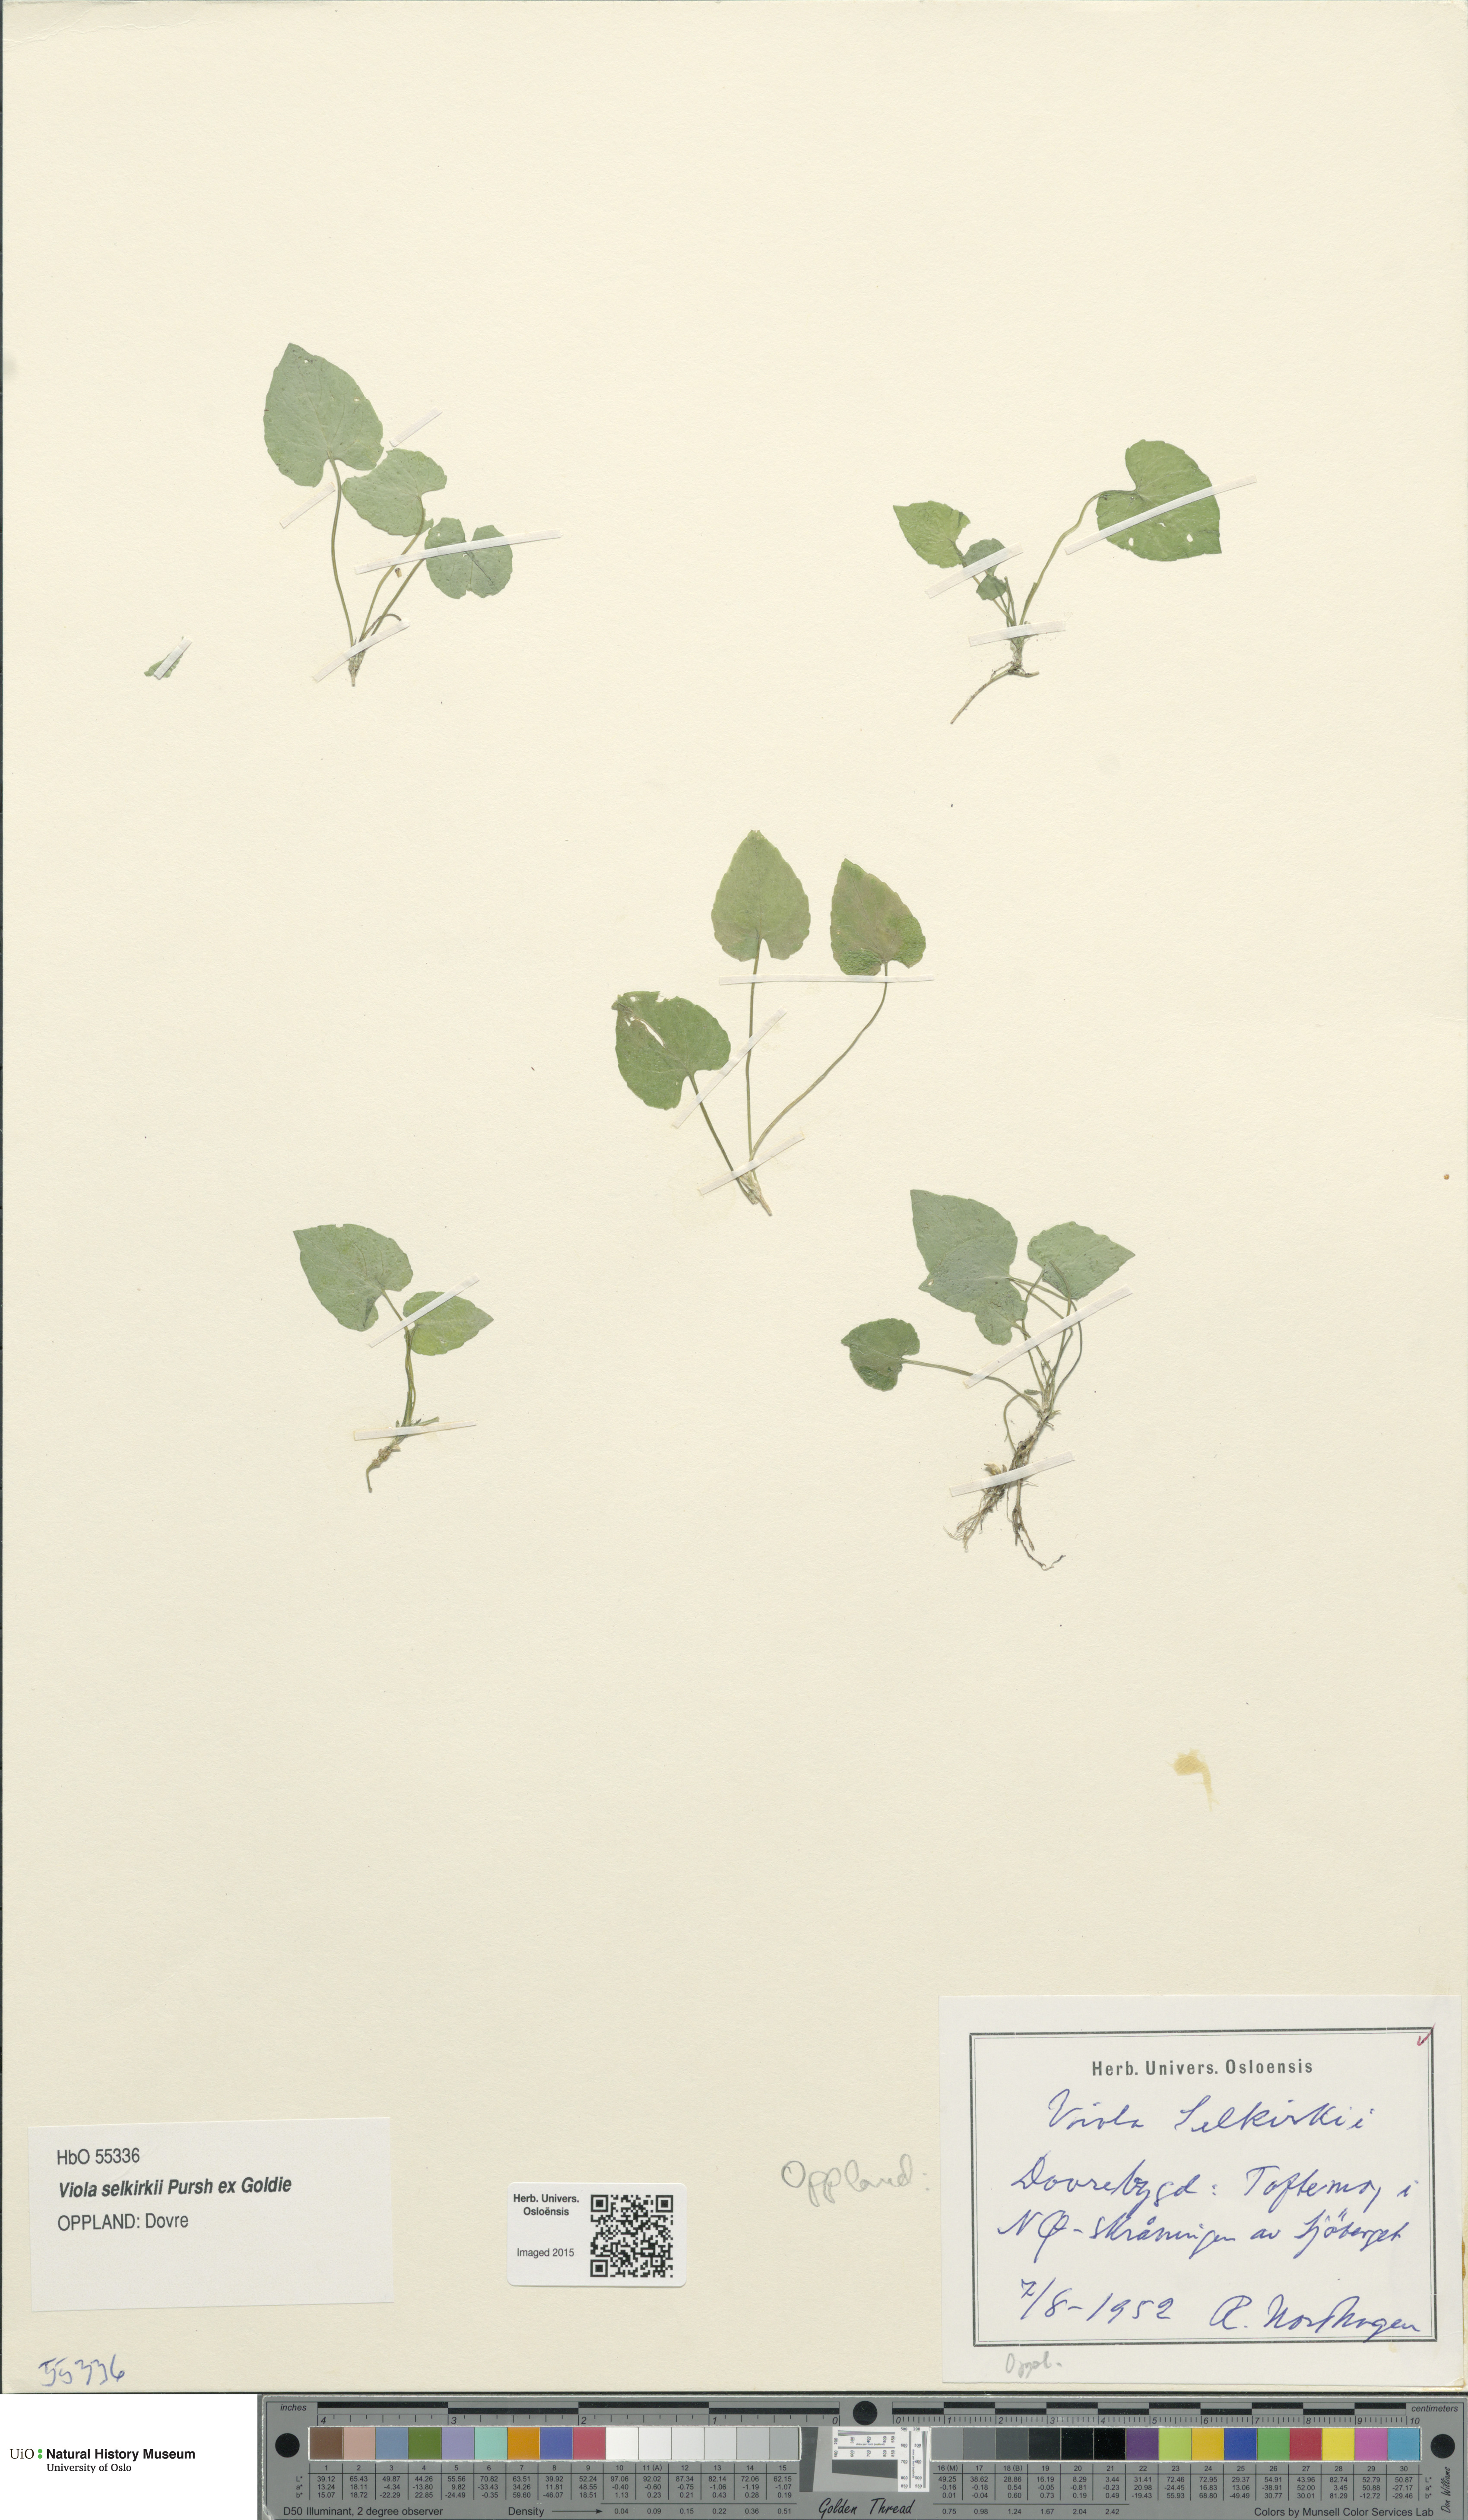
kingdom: Plantae
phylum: Tracheophyta
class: Magnoliopsida
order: Malpighiales
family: Violaceae
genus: Viola
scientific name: Viola selkirkii
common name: Selkirk's violet
